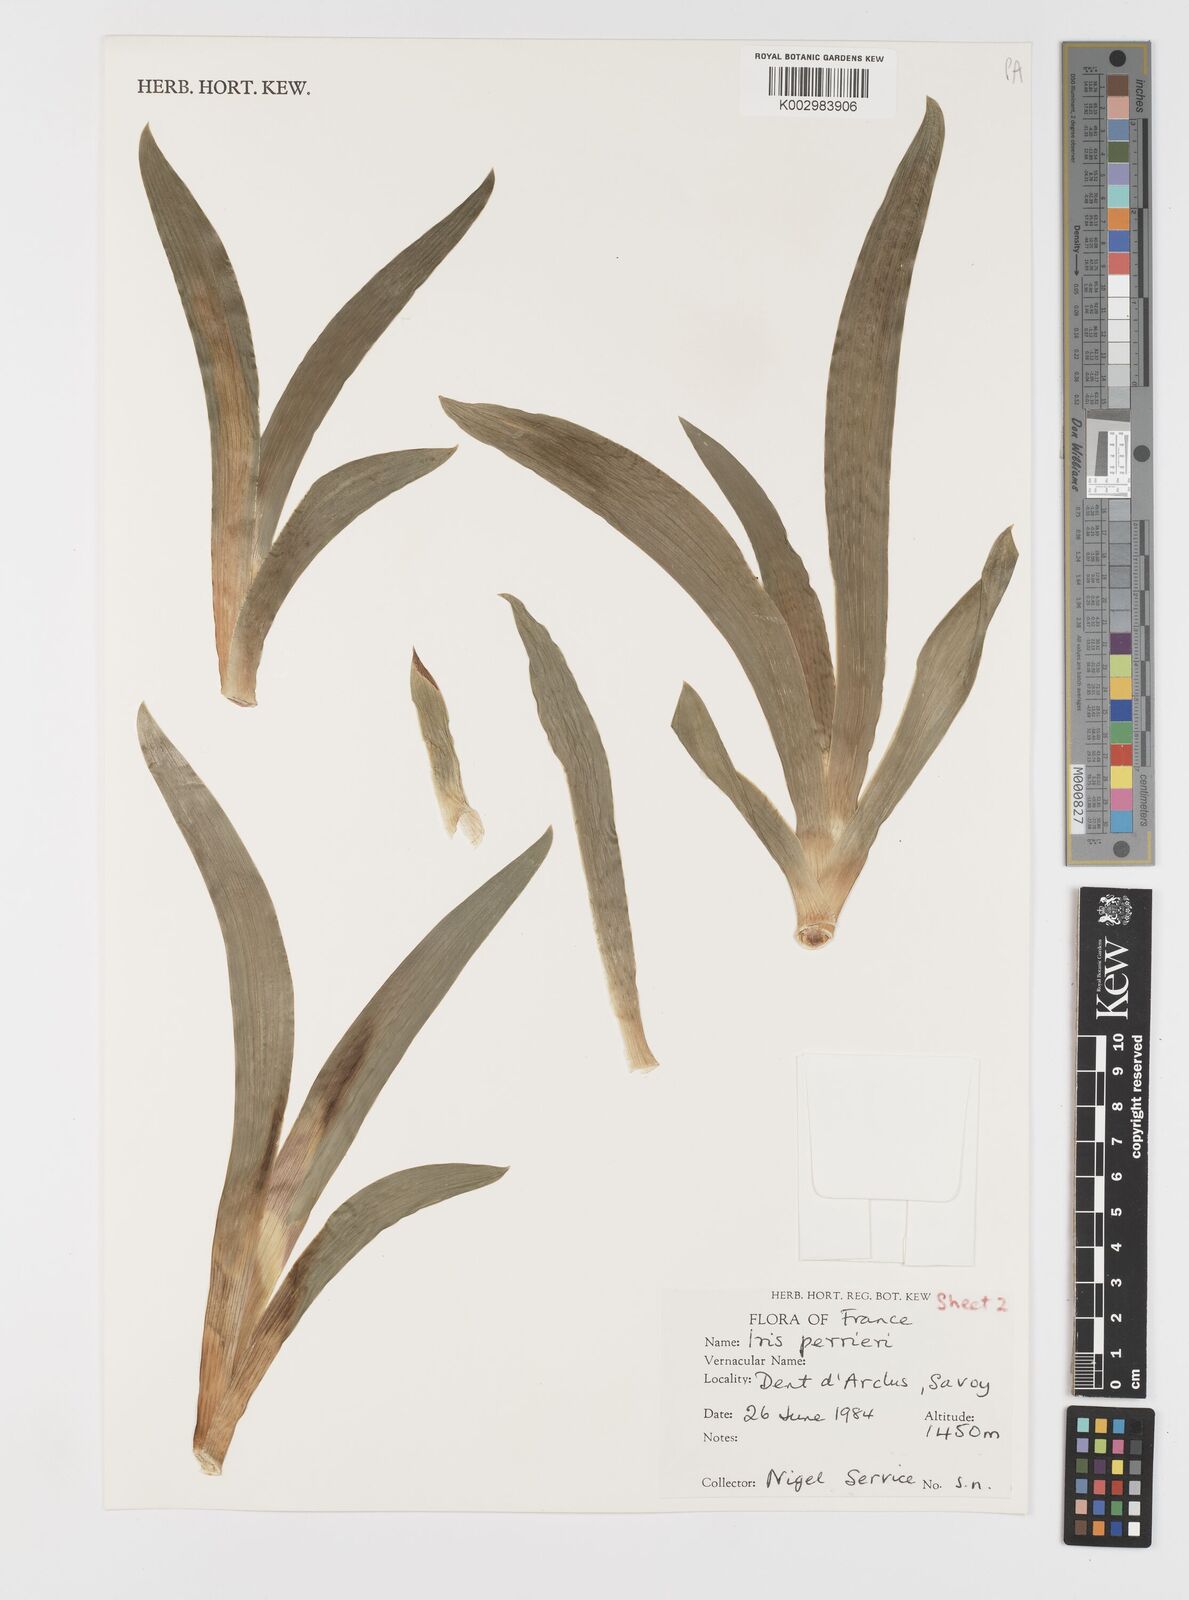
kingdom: Plantae
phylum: Tracheophyta
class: Liliopsida
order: Asparagales
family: Iridaceae
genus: Iris
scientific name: Iris perrieri
